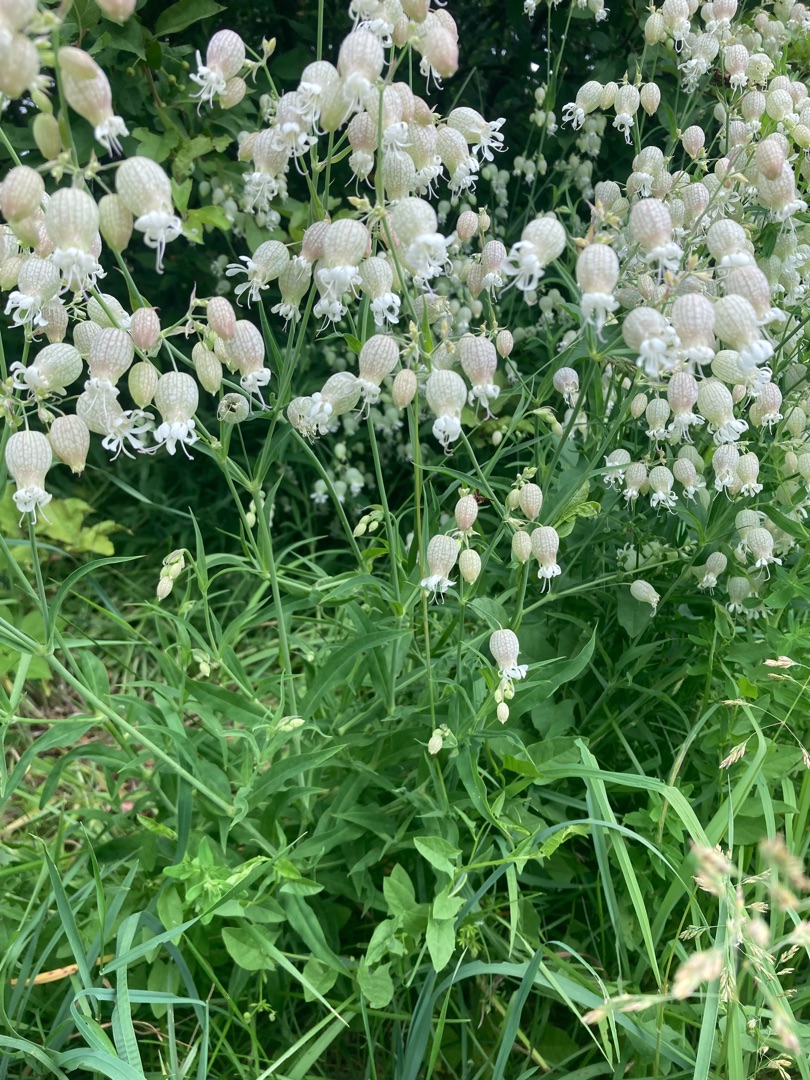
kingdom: Plantae
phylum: Tracheophyta
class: Magnoliopsida
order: Caryophyllales
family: Caryophyllaceae
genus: Silene
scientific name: Silene vulgaris
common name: Blæresmælde
